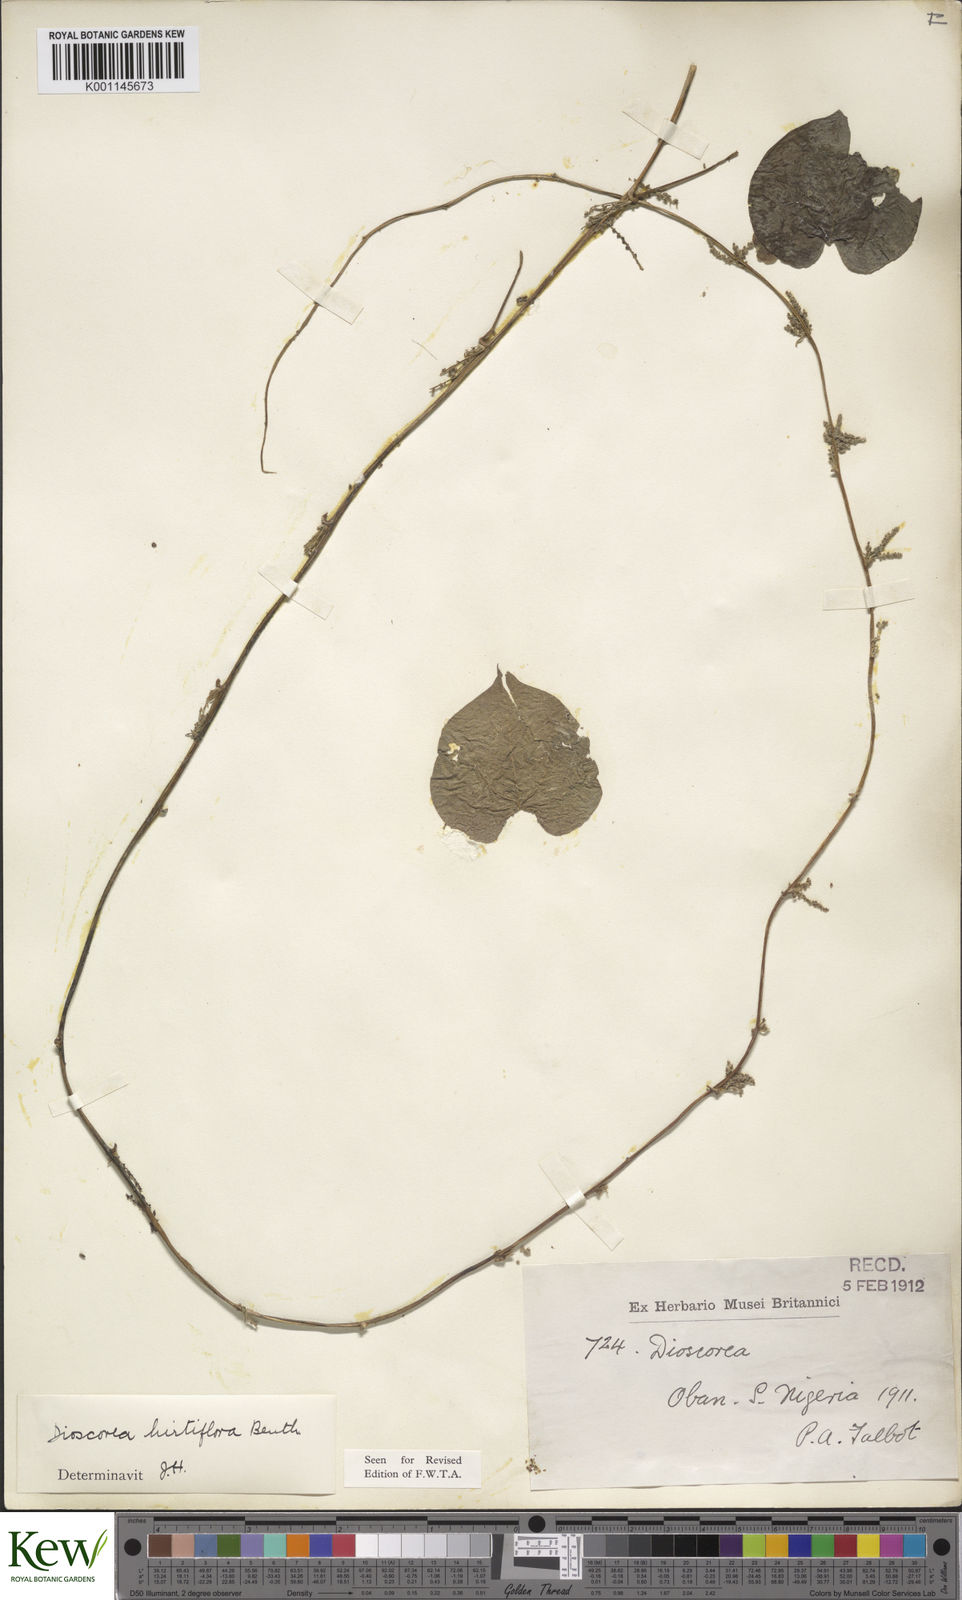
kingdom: Plantae
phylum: Tracheophyta
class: Liliopsida
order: Dioscoreales
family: Dioscoreaceae
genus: Dioscorea
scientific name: Dioscorea hirtiflora
